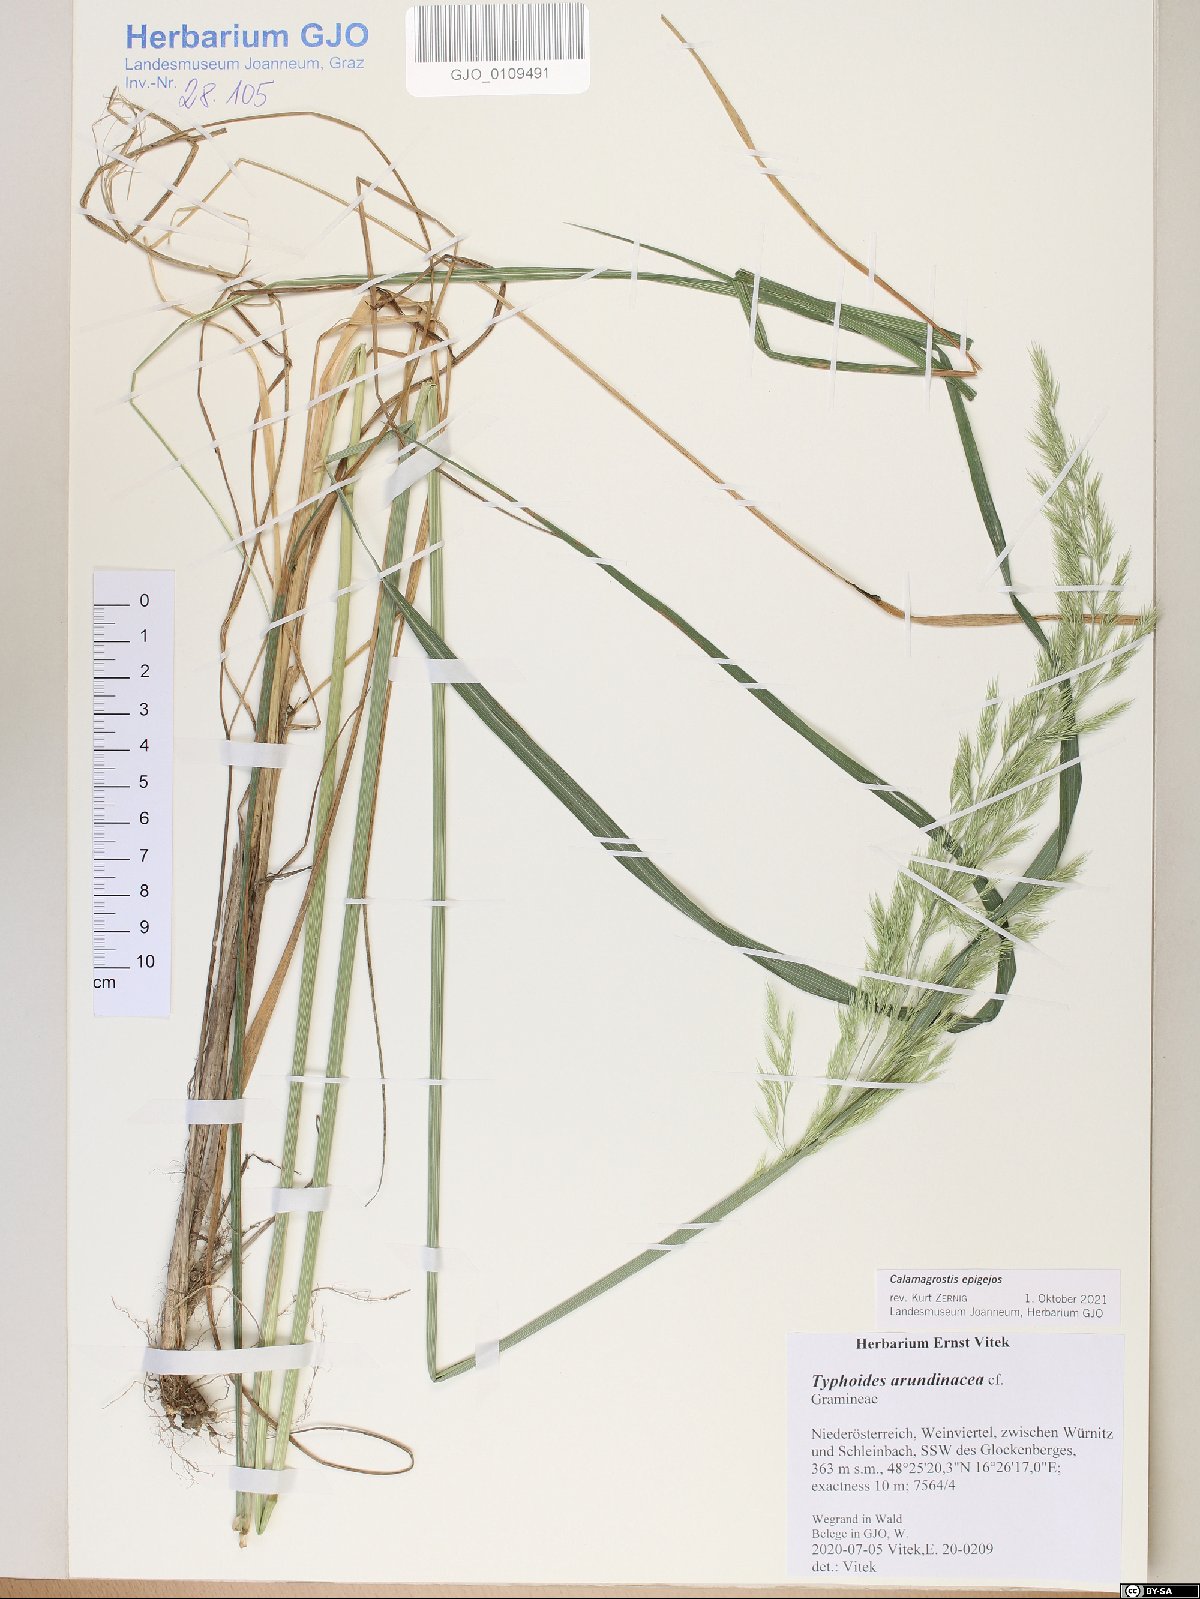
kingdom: Plantae
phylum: Tracheophyta
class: Liliopsida
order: Poales
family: Poaceae
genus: Calamagrostis
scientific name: Calamagrostis epigejos
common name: Wood small-reed
